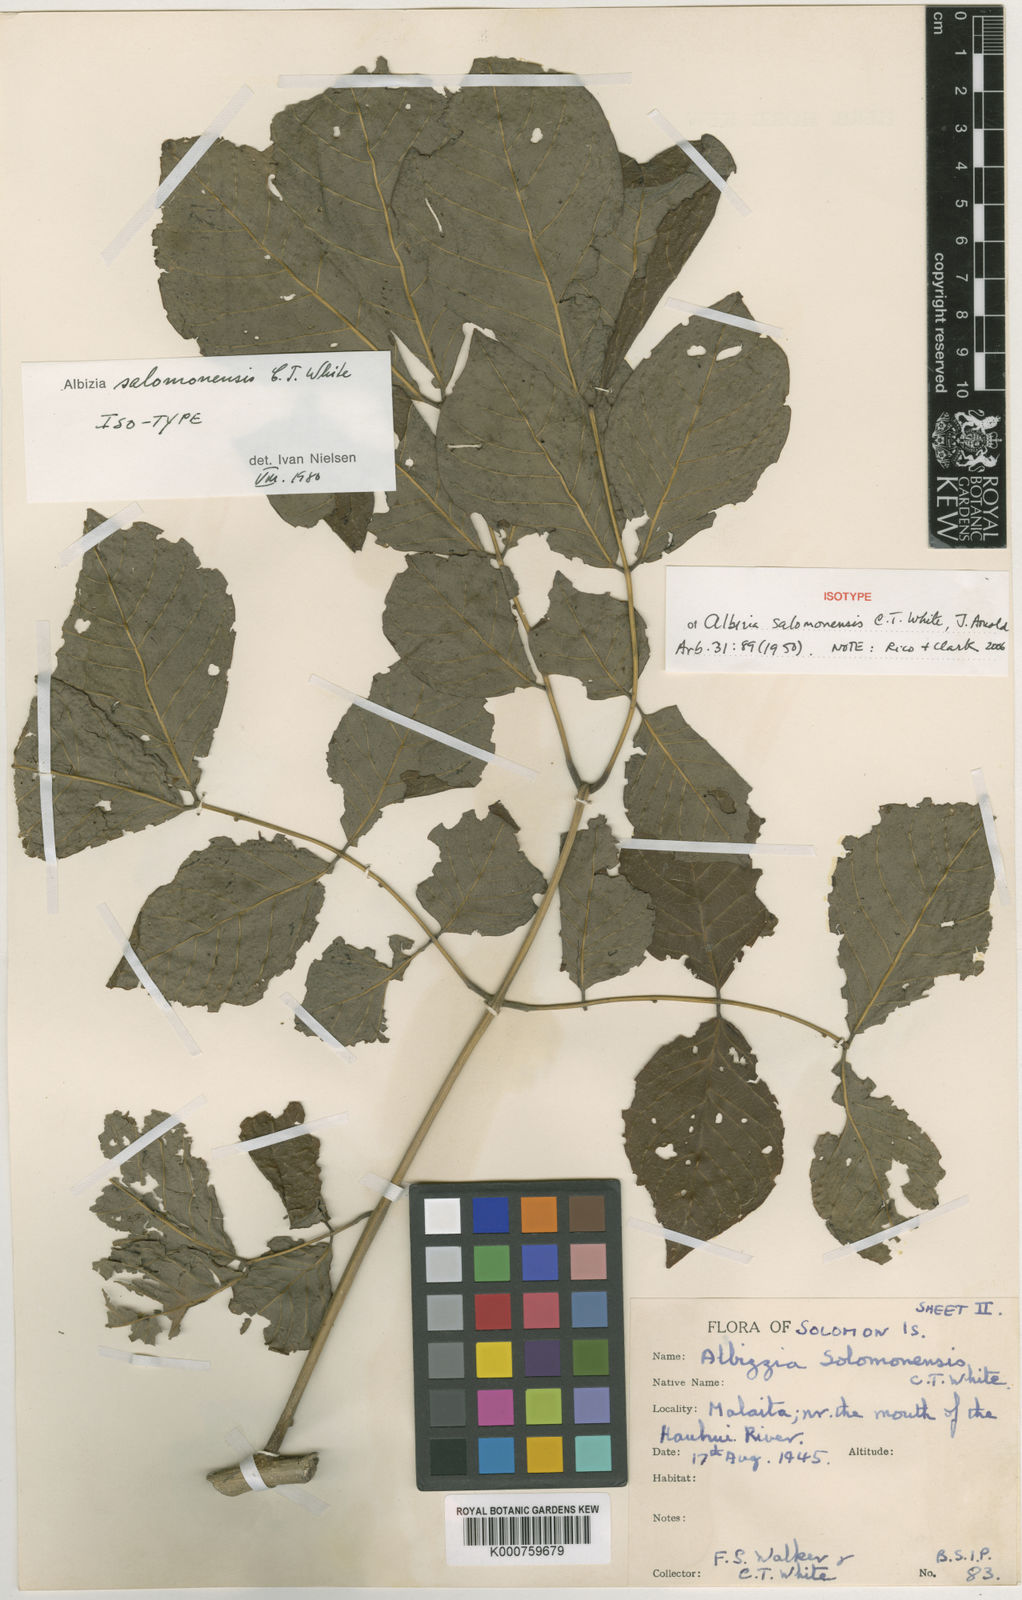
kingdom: Plantae
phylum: Tracheophyta
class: Magnoliopsida
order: Fabales
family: Fabaceae
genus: Albizia
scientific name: Albizia salomonensis
